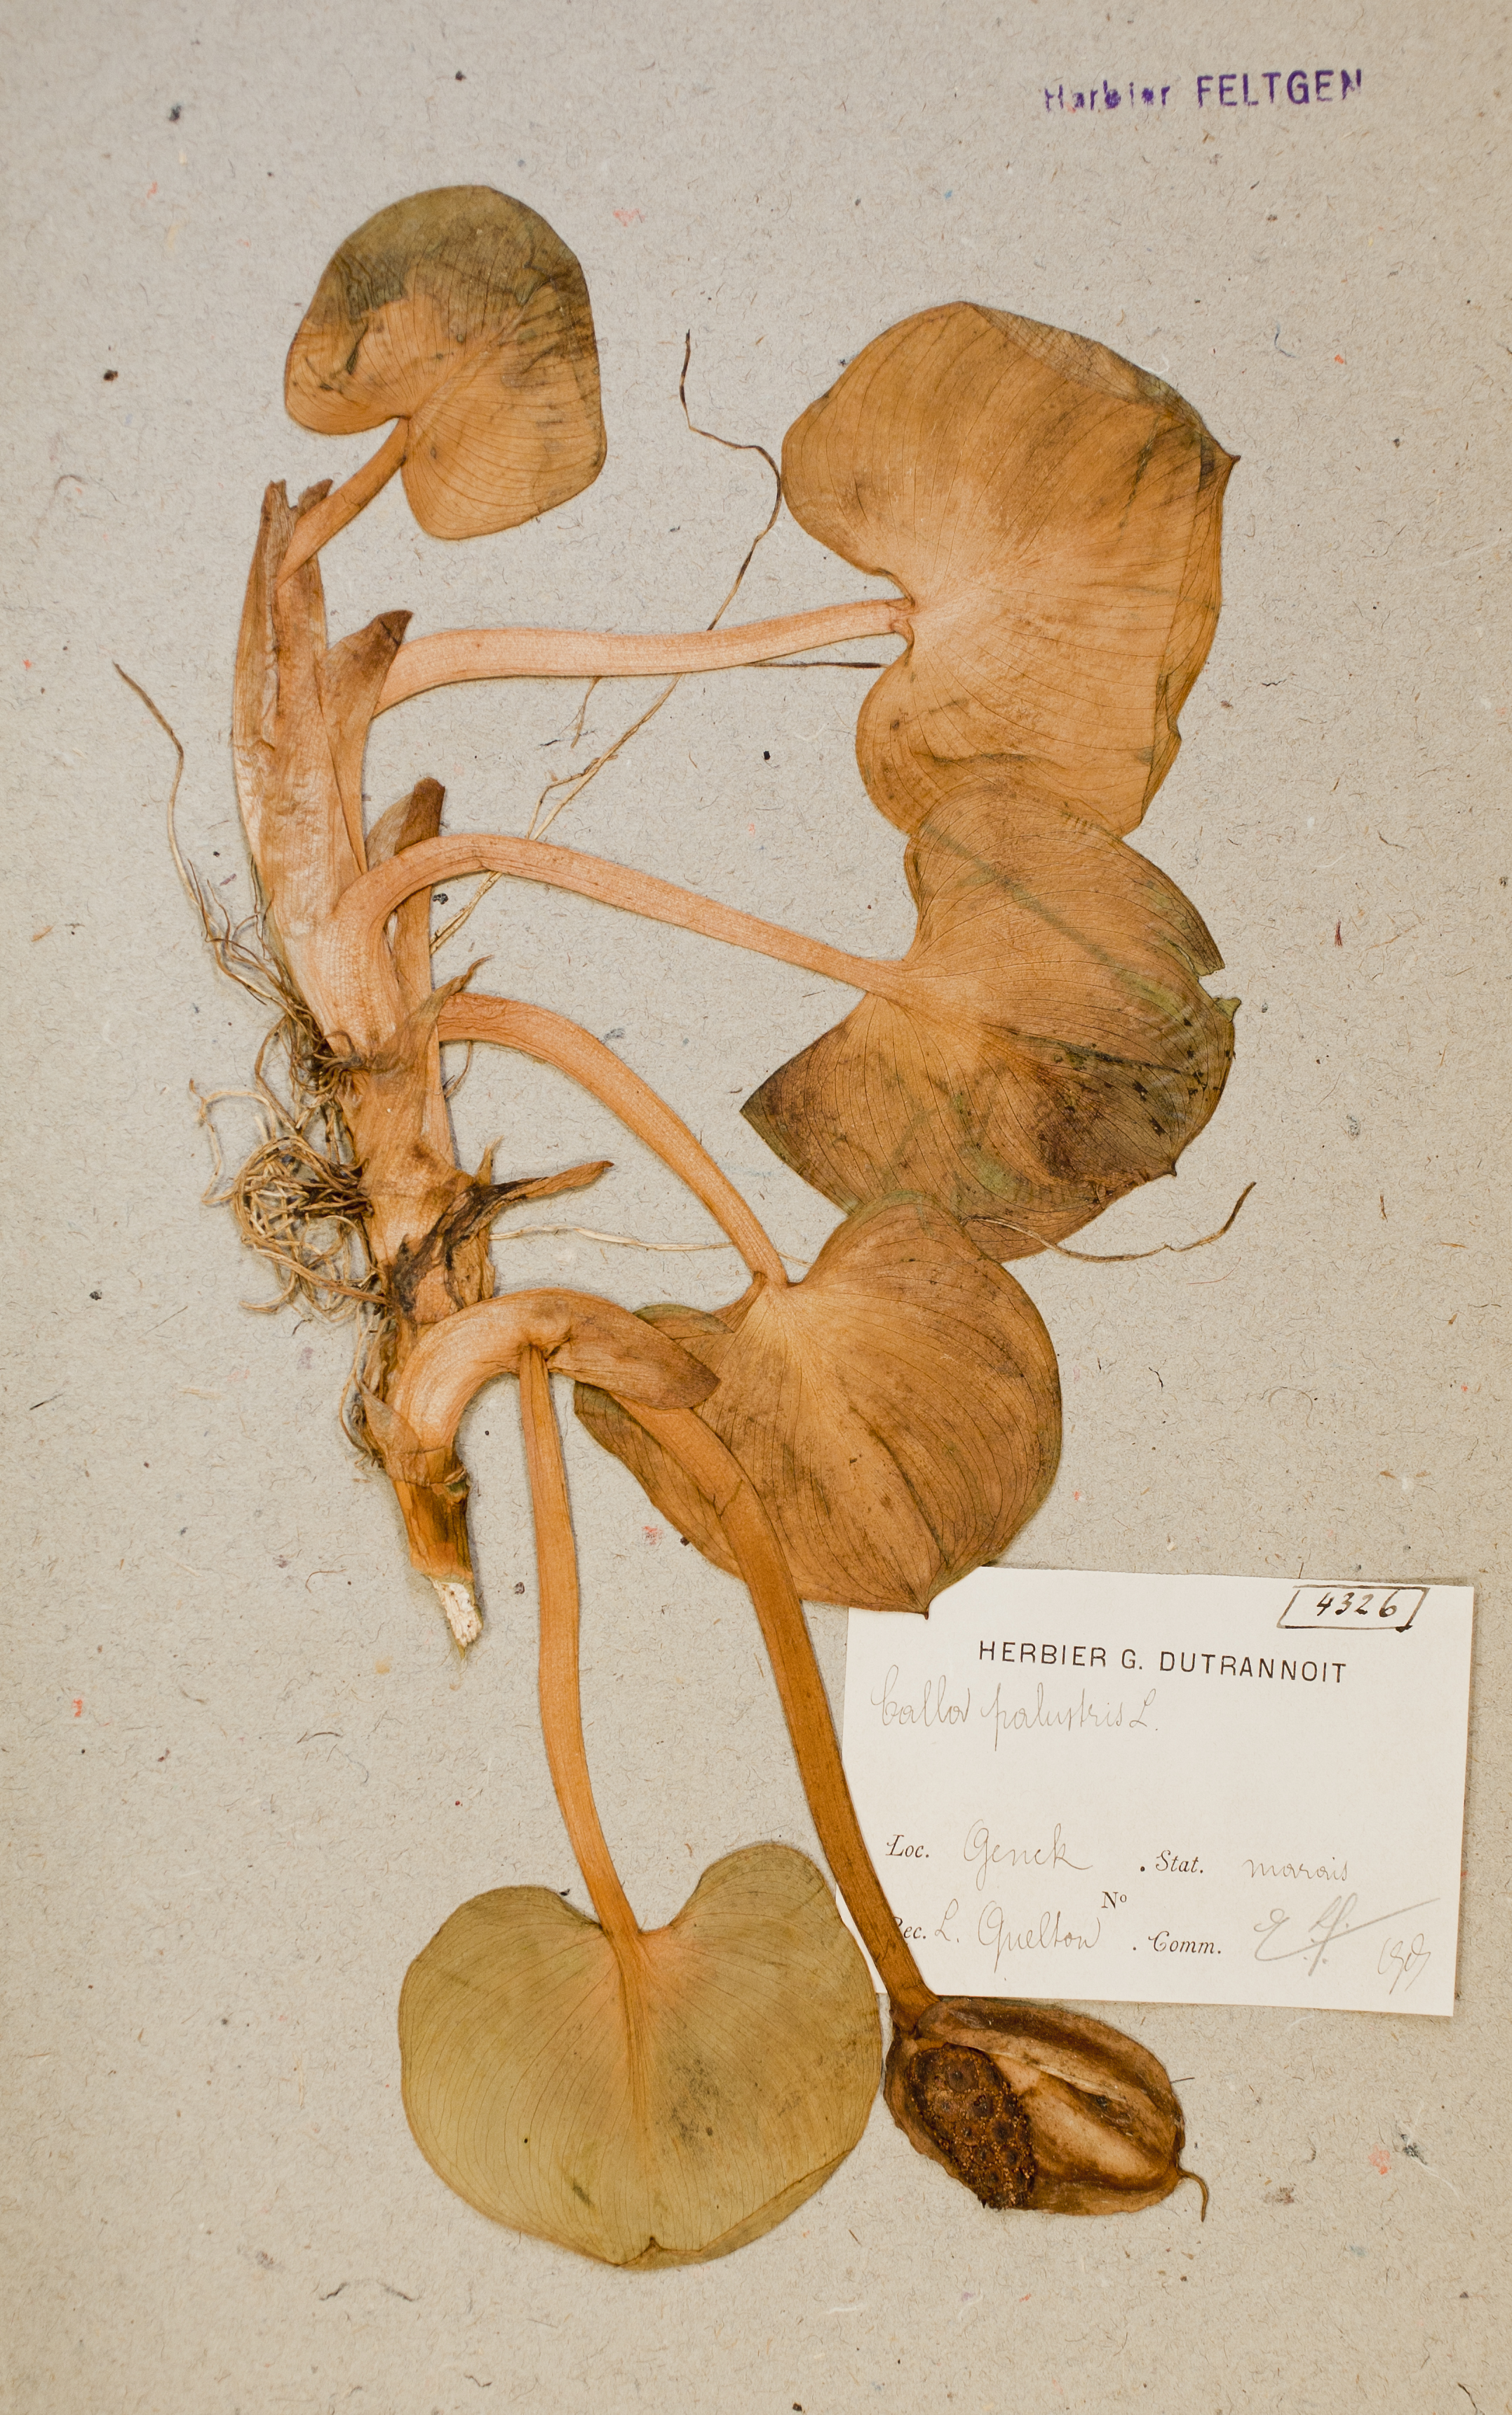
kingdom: Plantae
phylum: Tracheophyta
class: Liliopsida
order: Alismatales
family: Araceae
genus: Calla
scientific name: Calla palustris
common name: Bog arum
